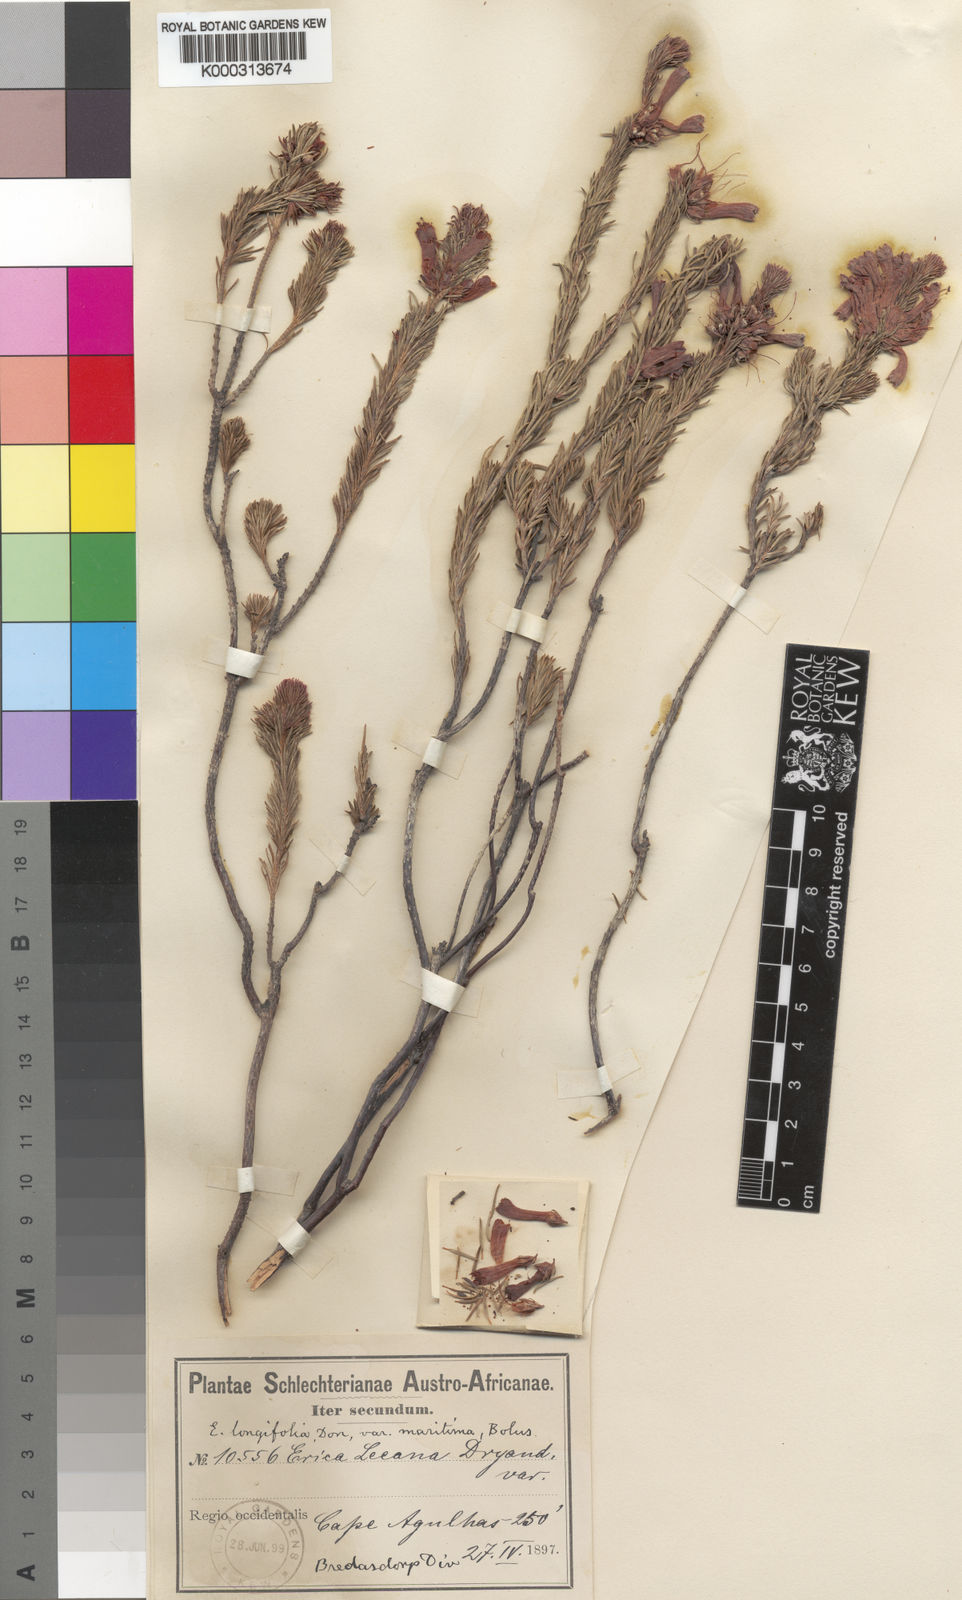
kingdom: Plantae
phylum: Tracheophyta
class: Magnoliopsida
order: Ericales
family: Ericaceae
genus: Erica
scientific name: Erica
